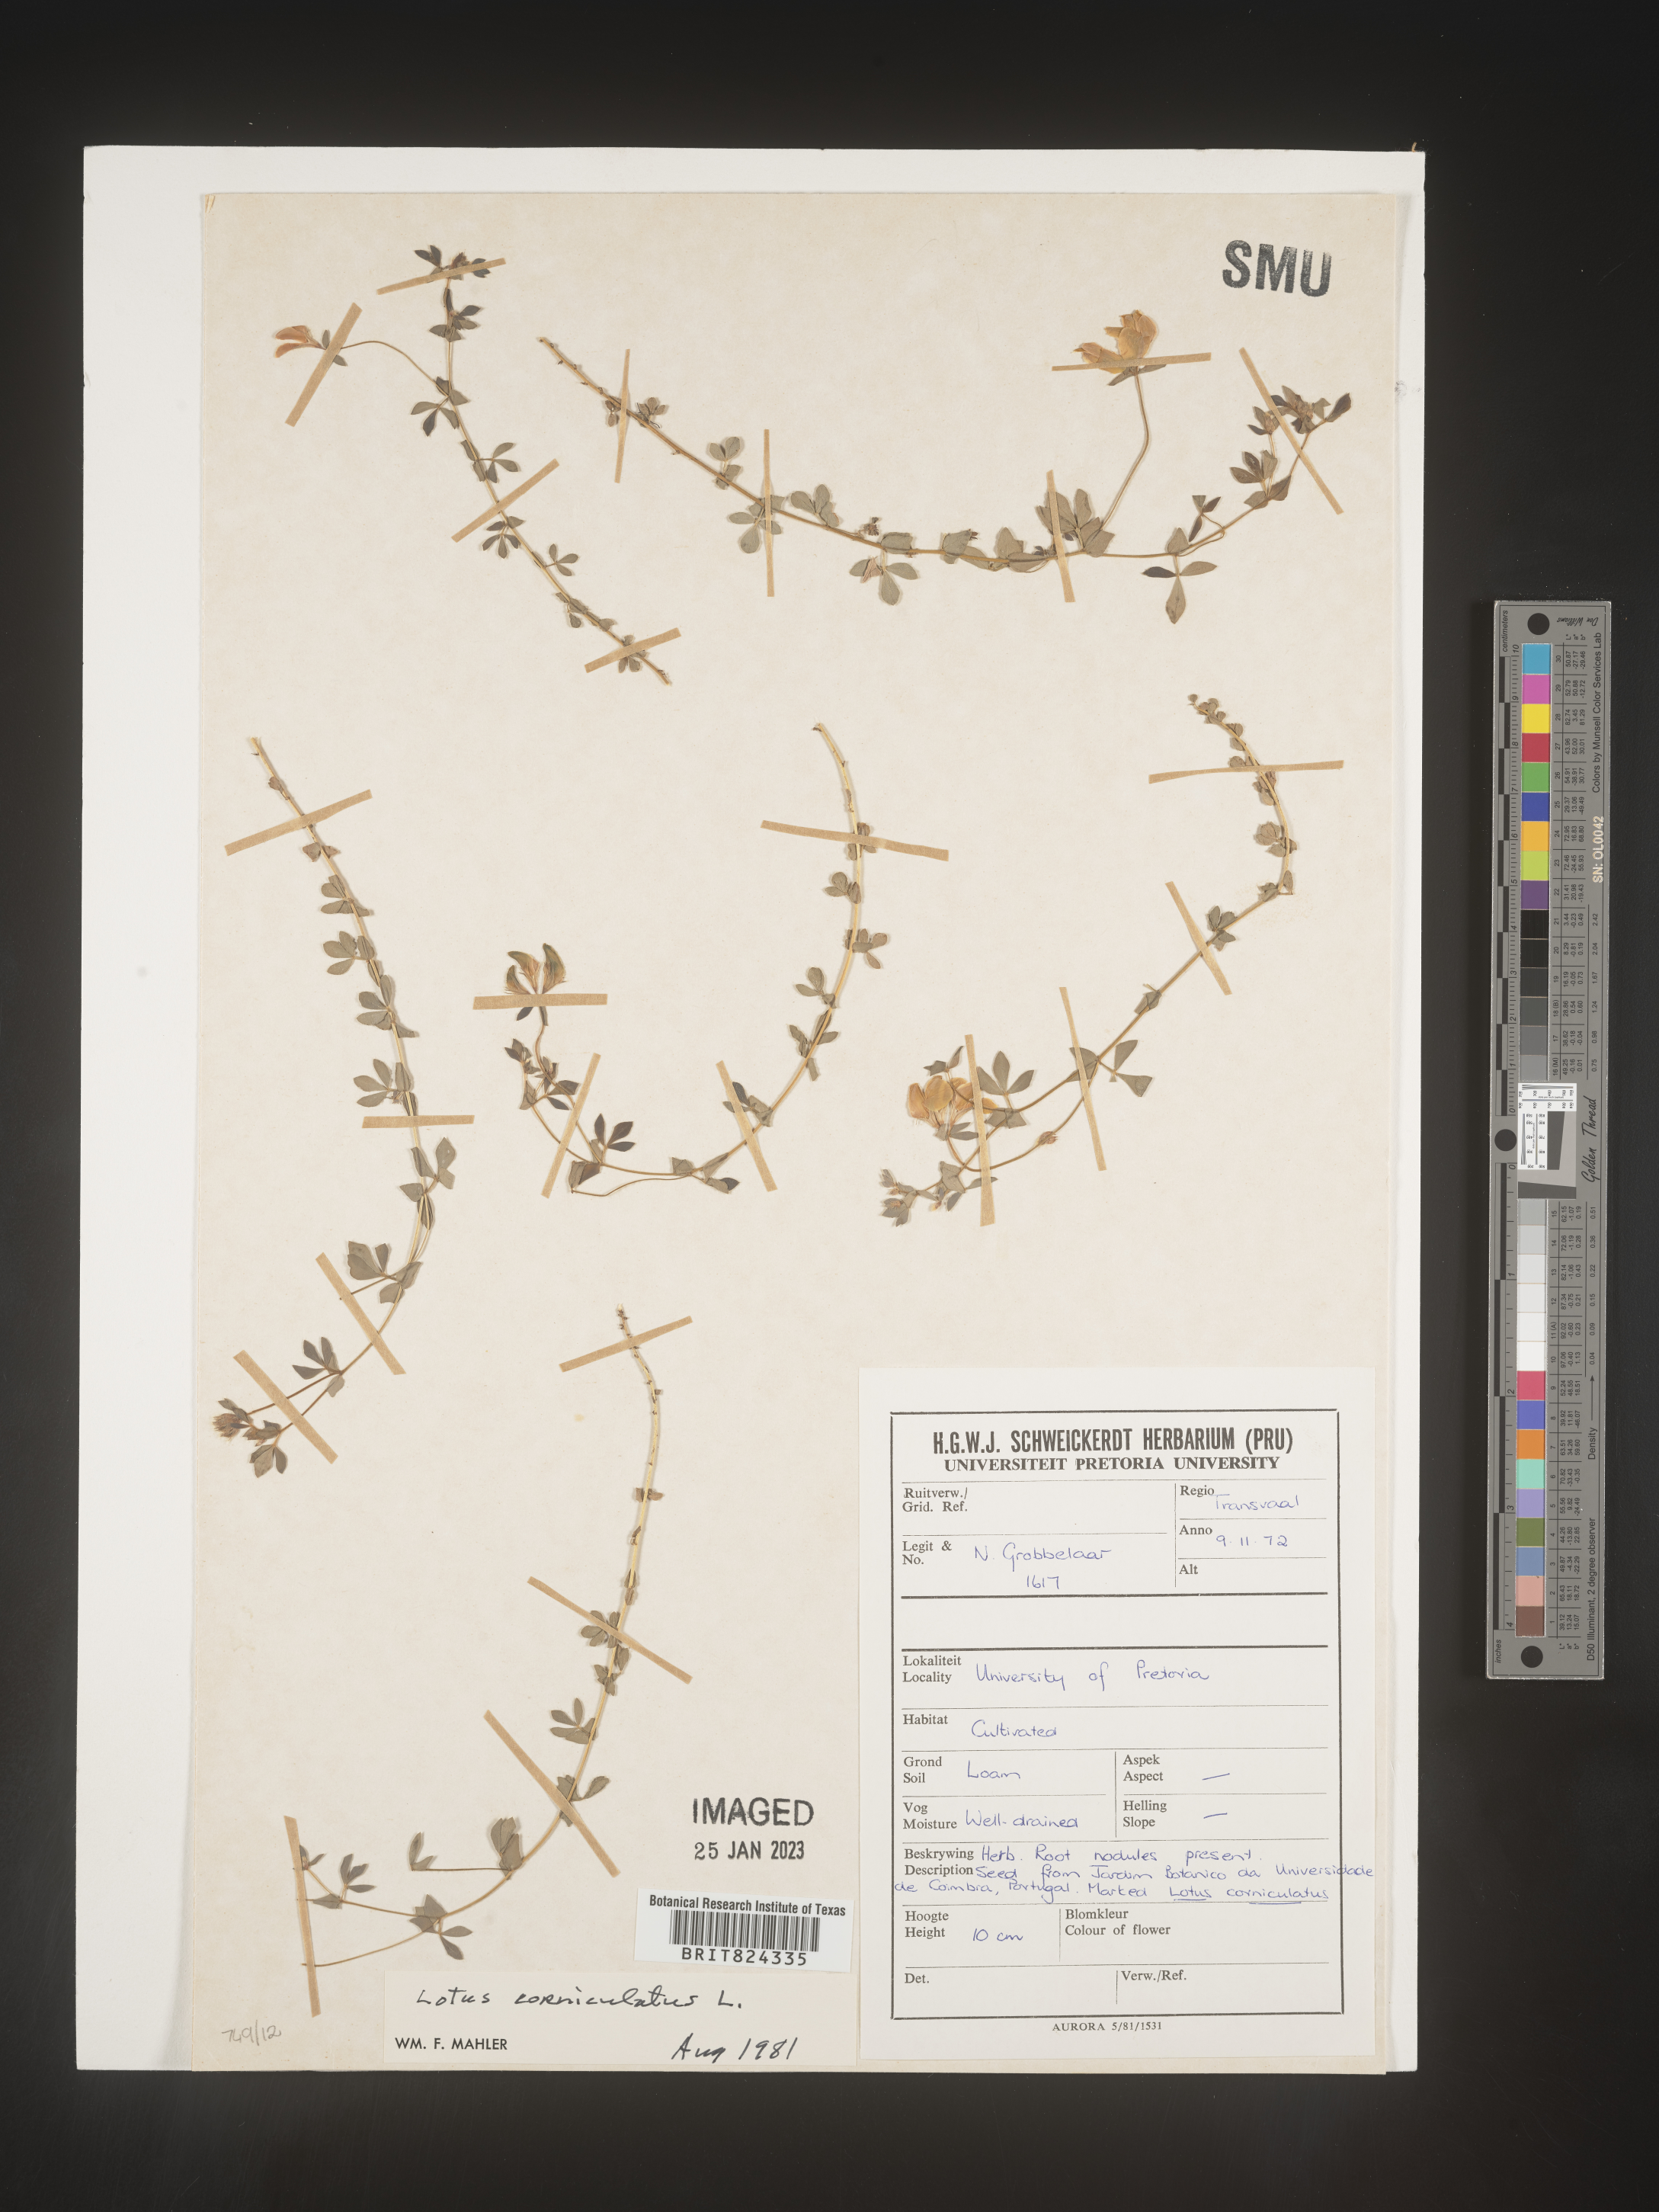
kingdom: Plantae
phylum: Tracheophyta
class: Magnoliopsida
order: Fabales
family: Fabaceae
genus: Lotus
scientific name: Lotus
